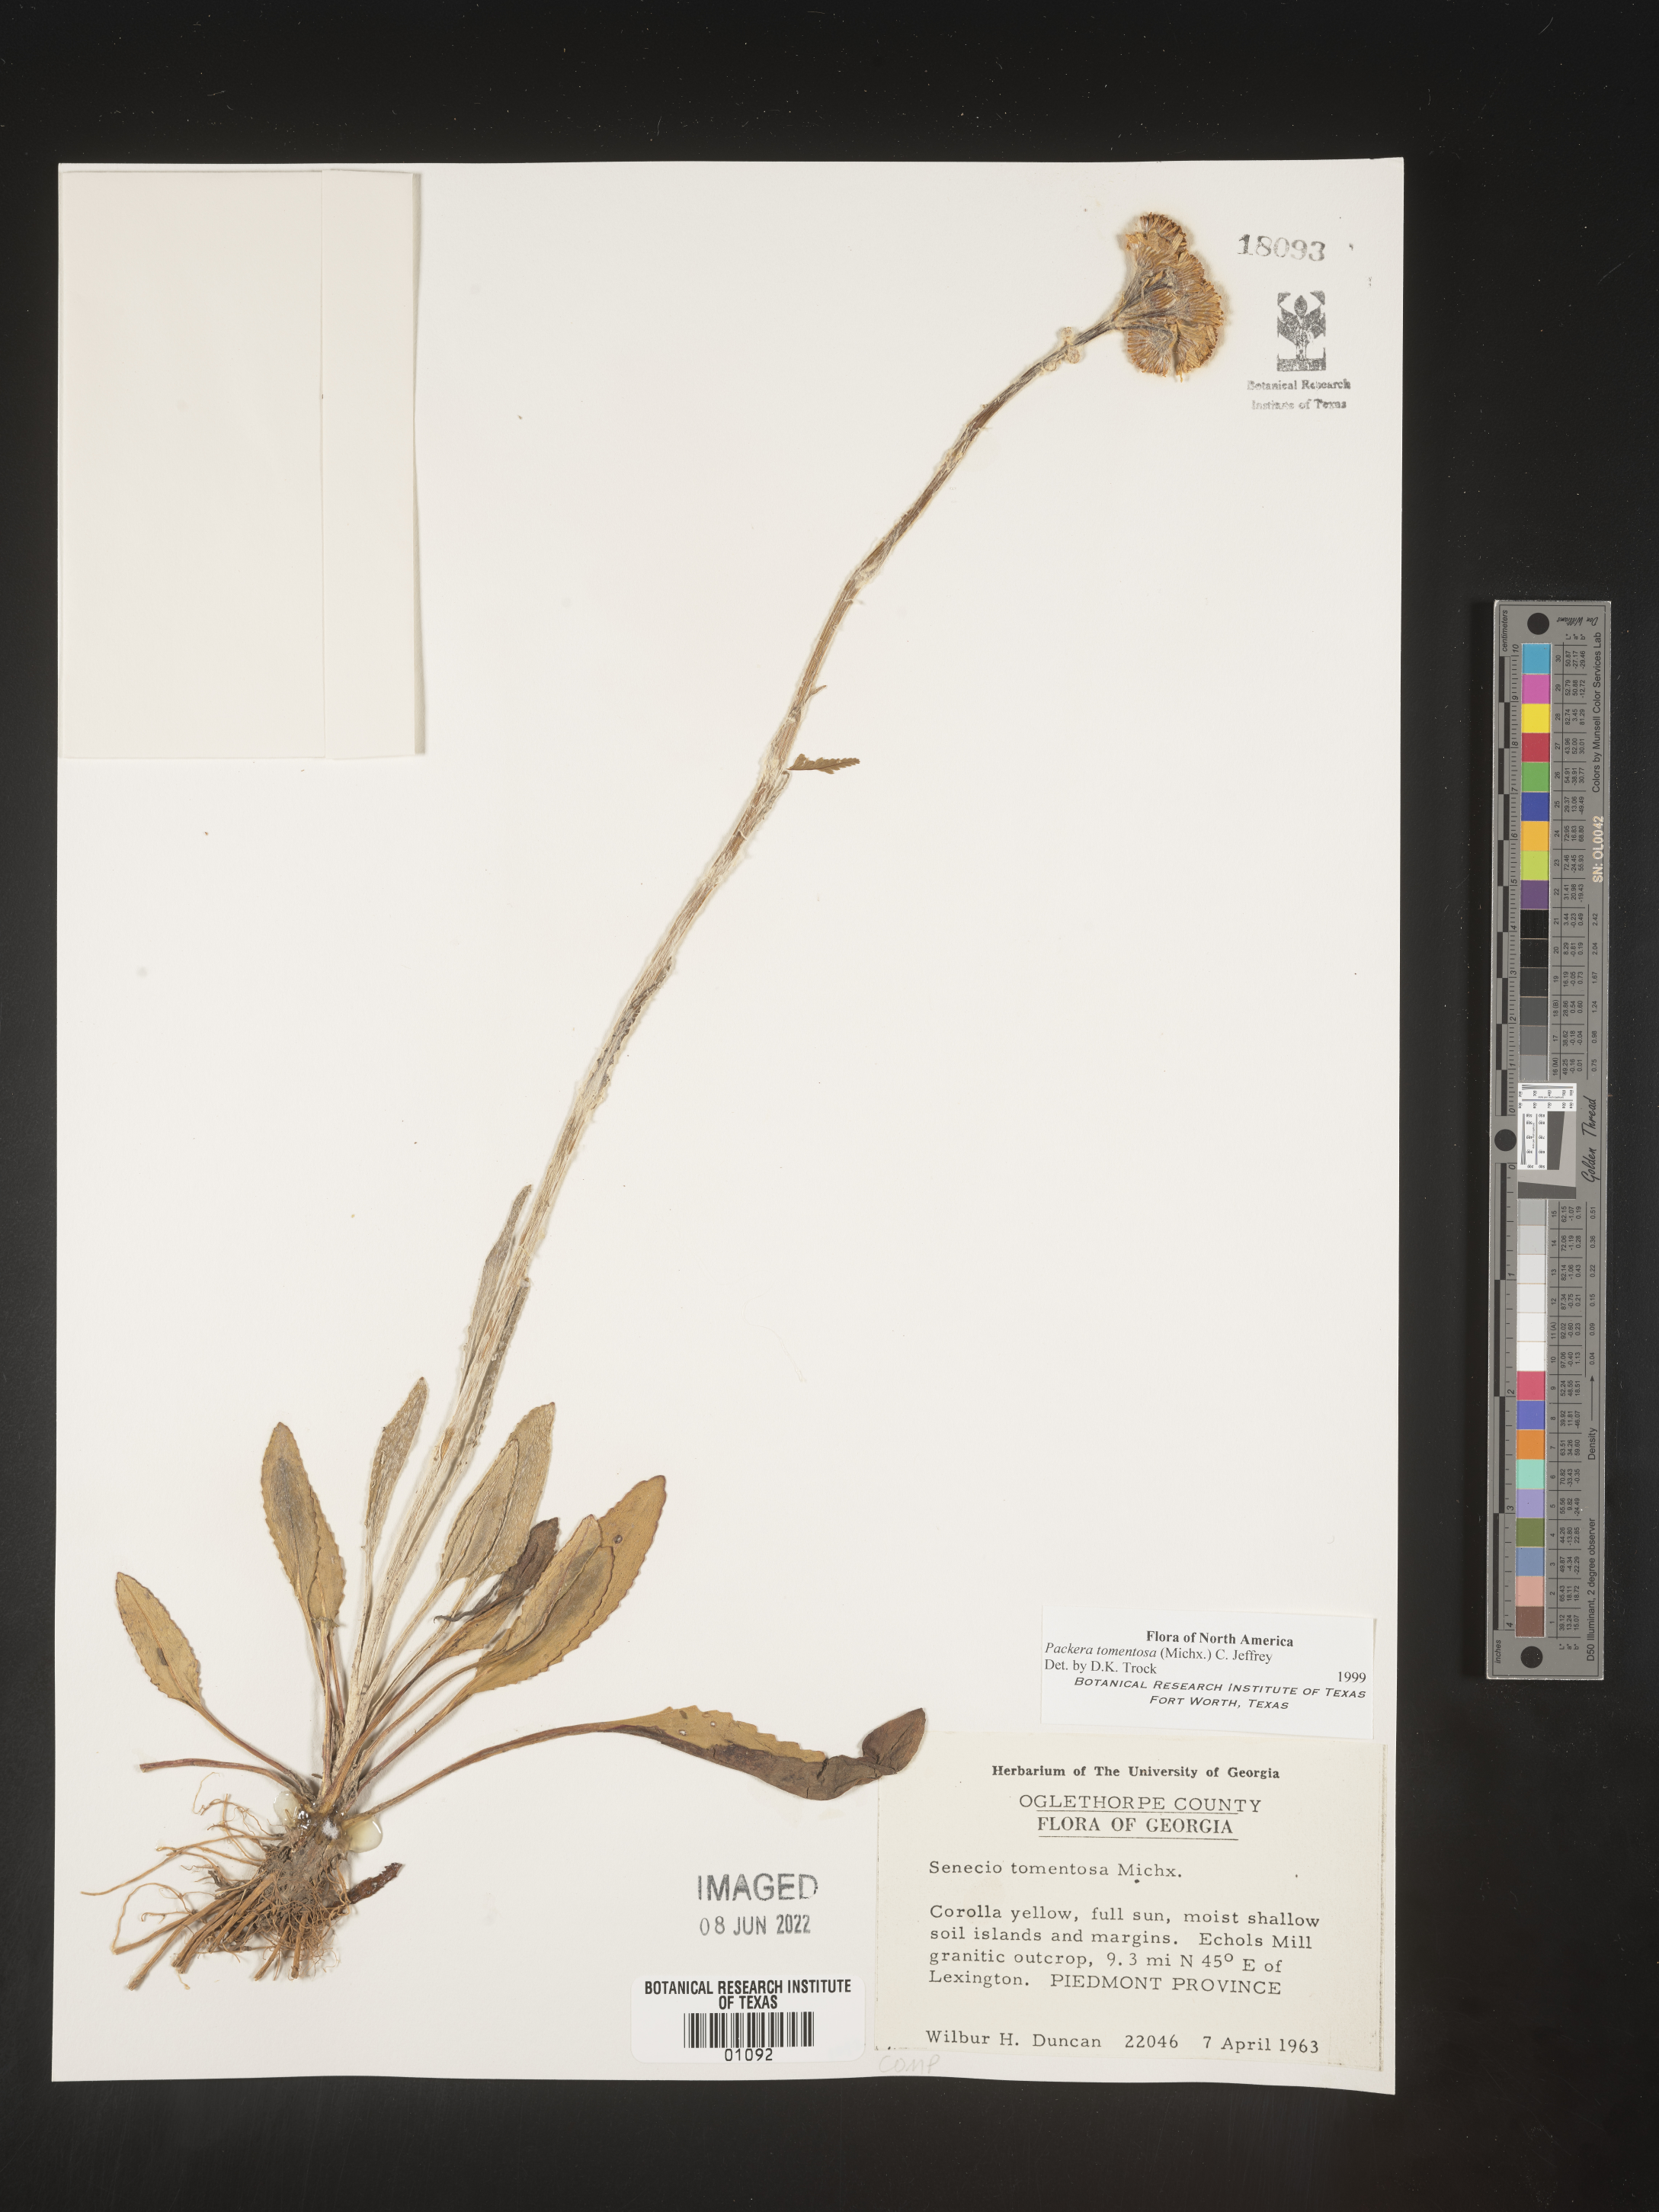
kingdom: Plantae
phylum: Tracheophyta
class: Magnoliopsida
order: Asterales
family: Asteraceae
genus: Packera
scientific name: Packera dubia
